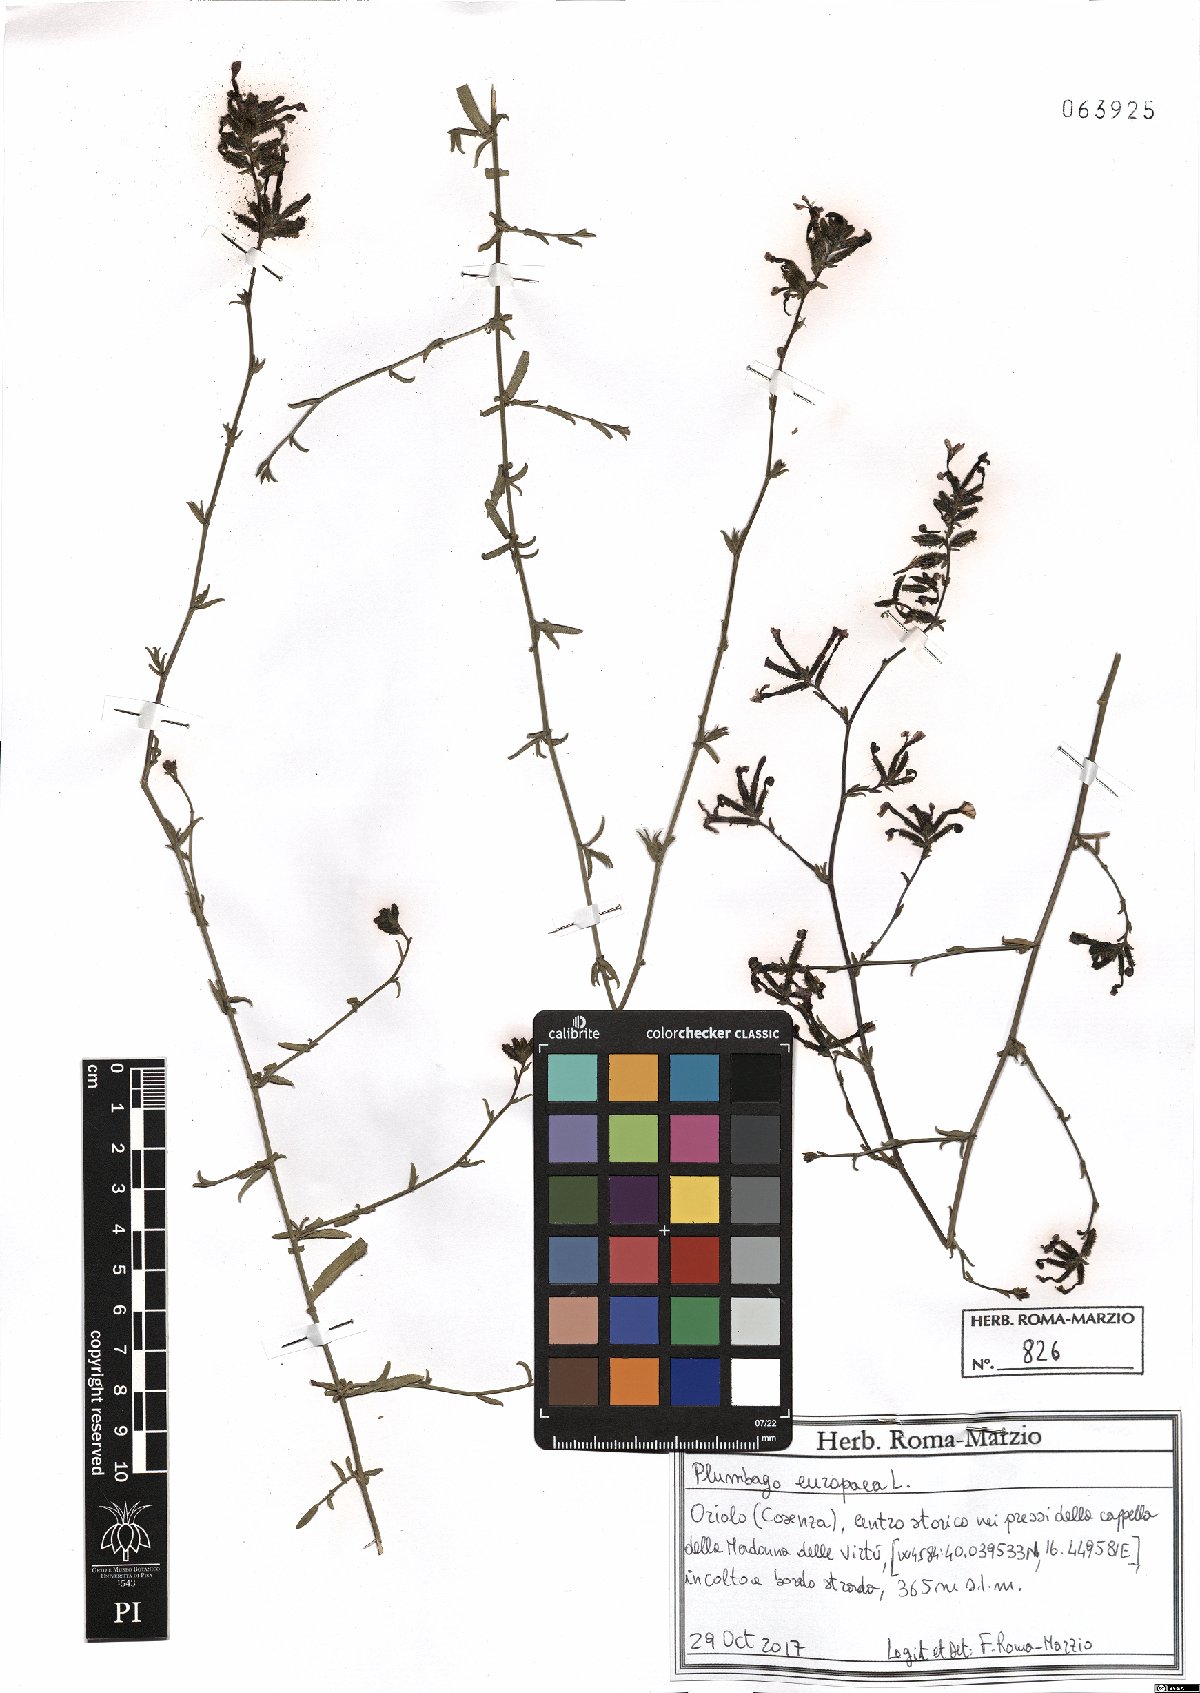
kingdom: Plantae
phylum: Tracheophyta
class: Magnoliopsida
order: Caryophyllales
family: Plumbaginaceae
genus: Plumbago
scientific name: Plumbago europaea
